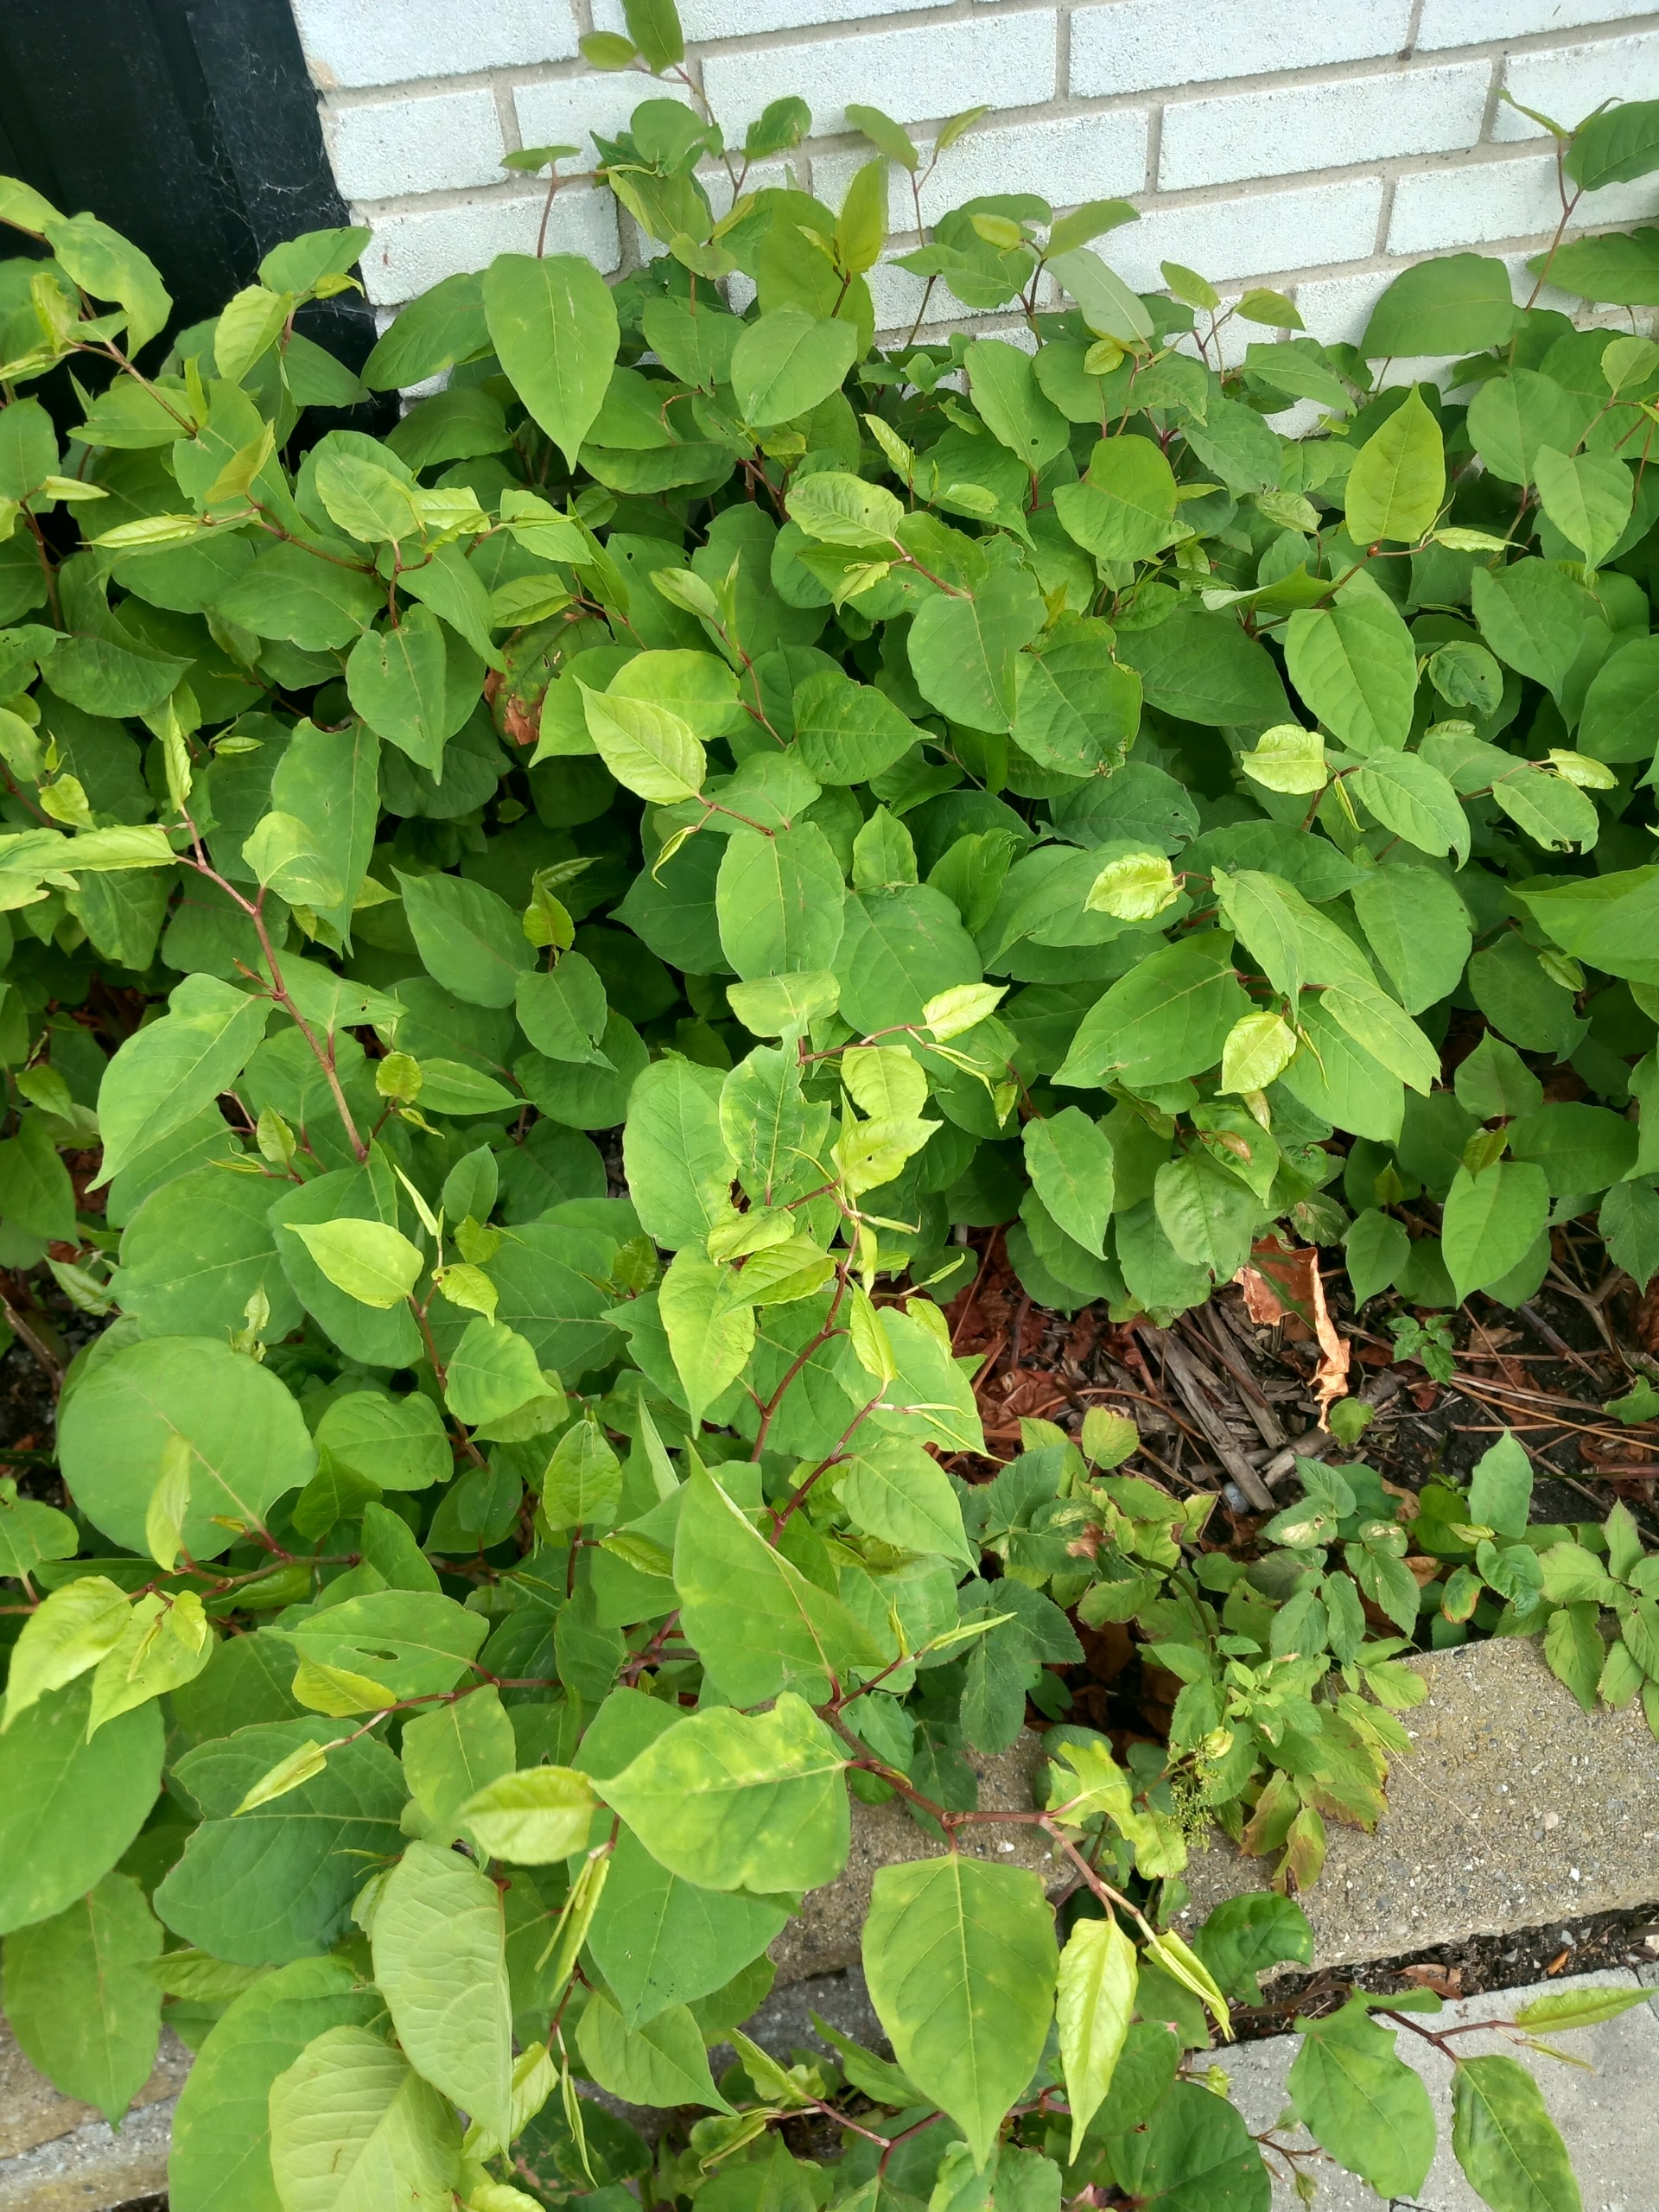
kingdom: Plantae
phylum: Tracheophyta
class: Magnoliopsida
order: Caryophyllales
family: Polygonaceae
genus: Reynoutria
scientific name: Reynoutria japonica
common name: Japan-pileurt
